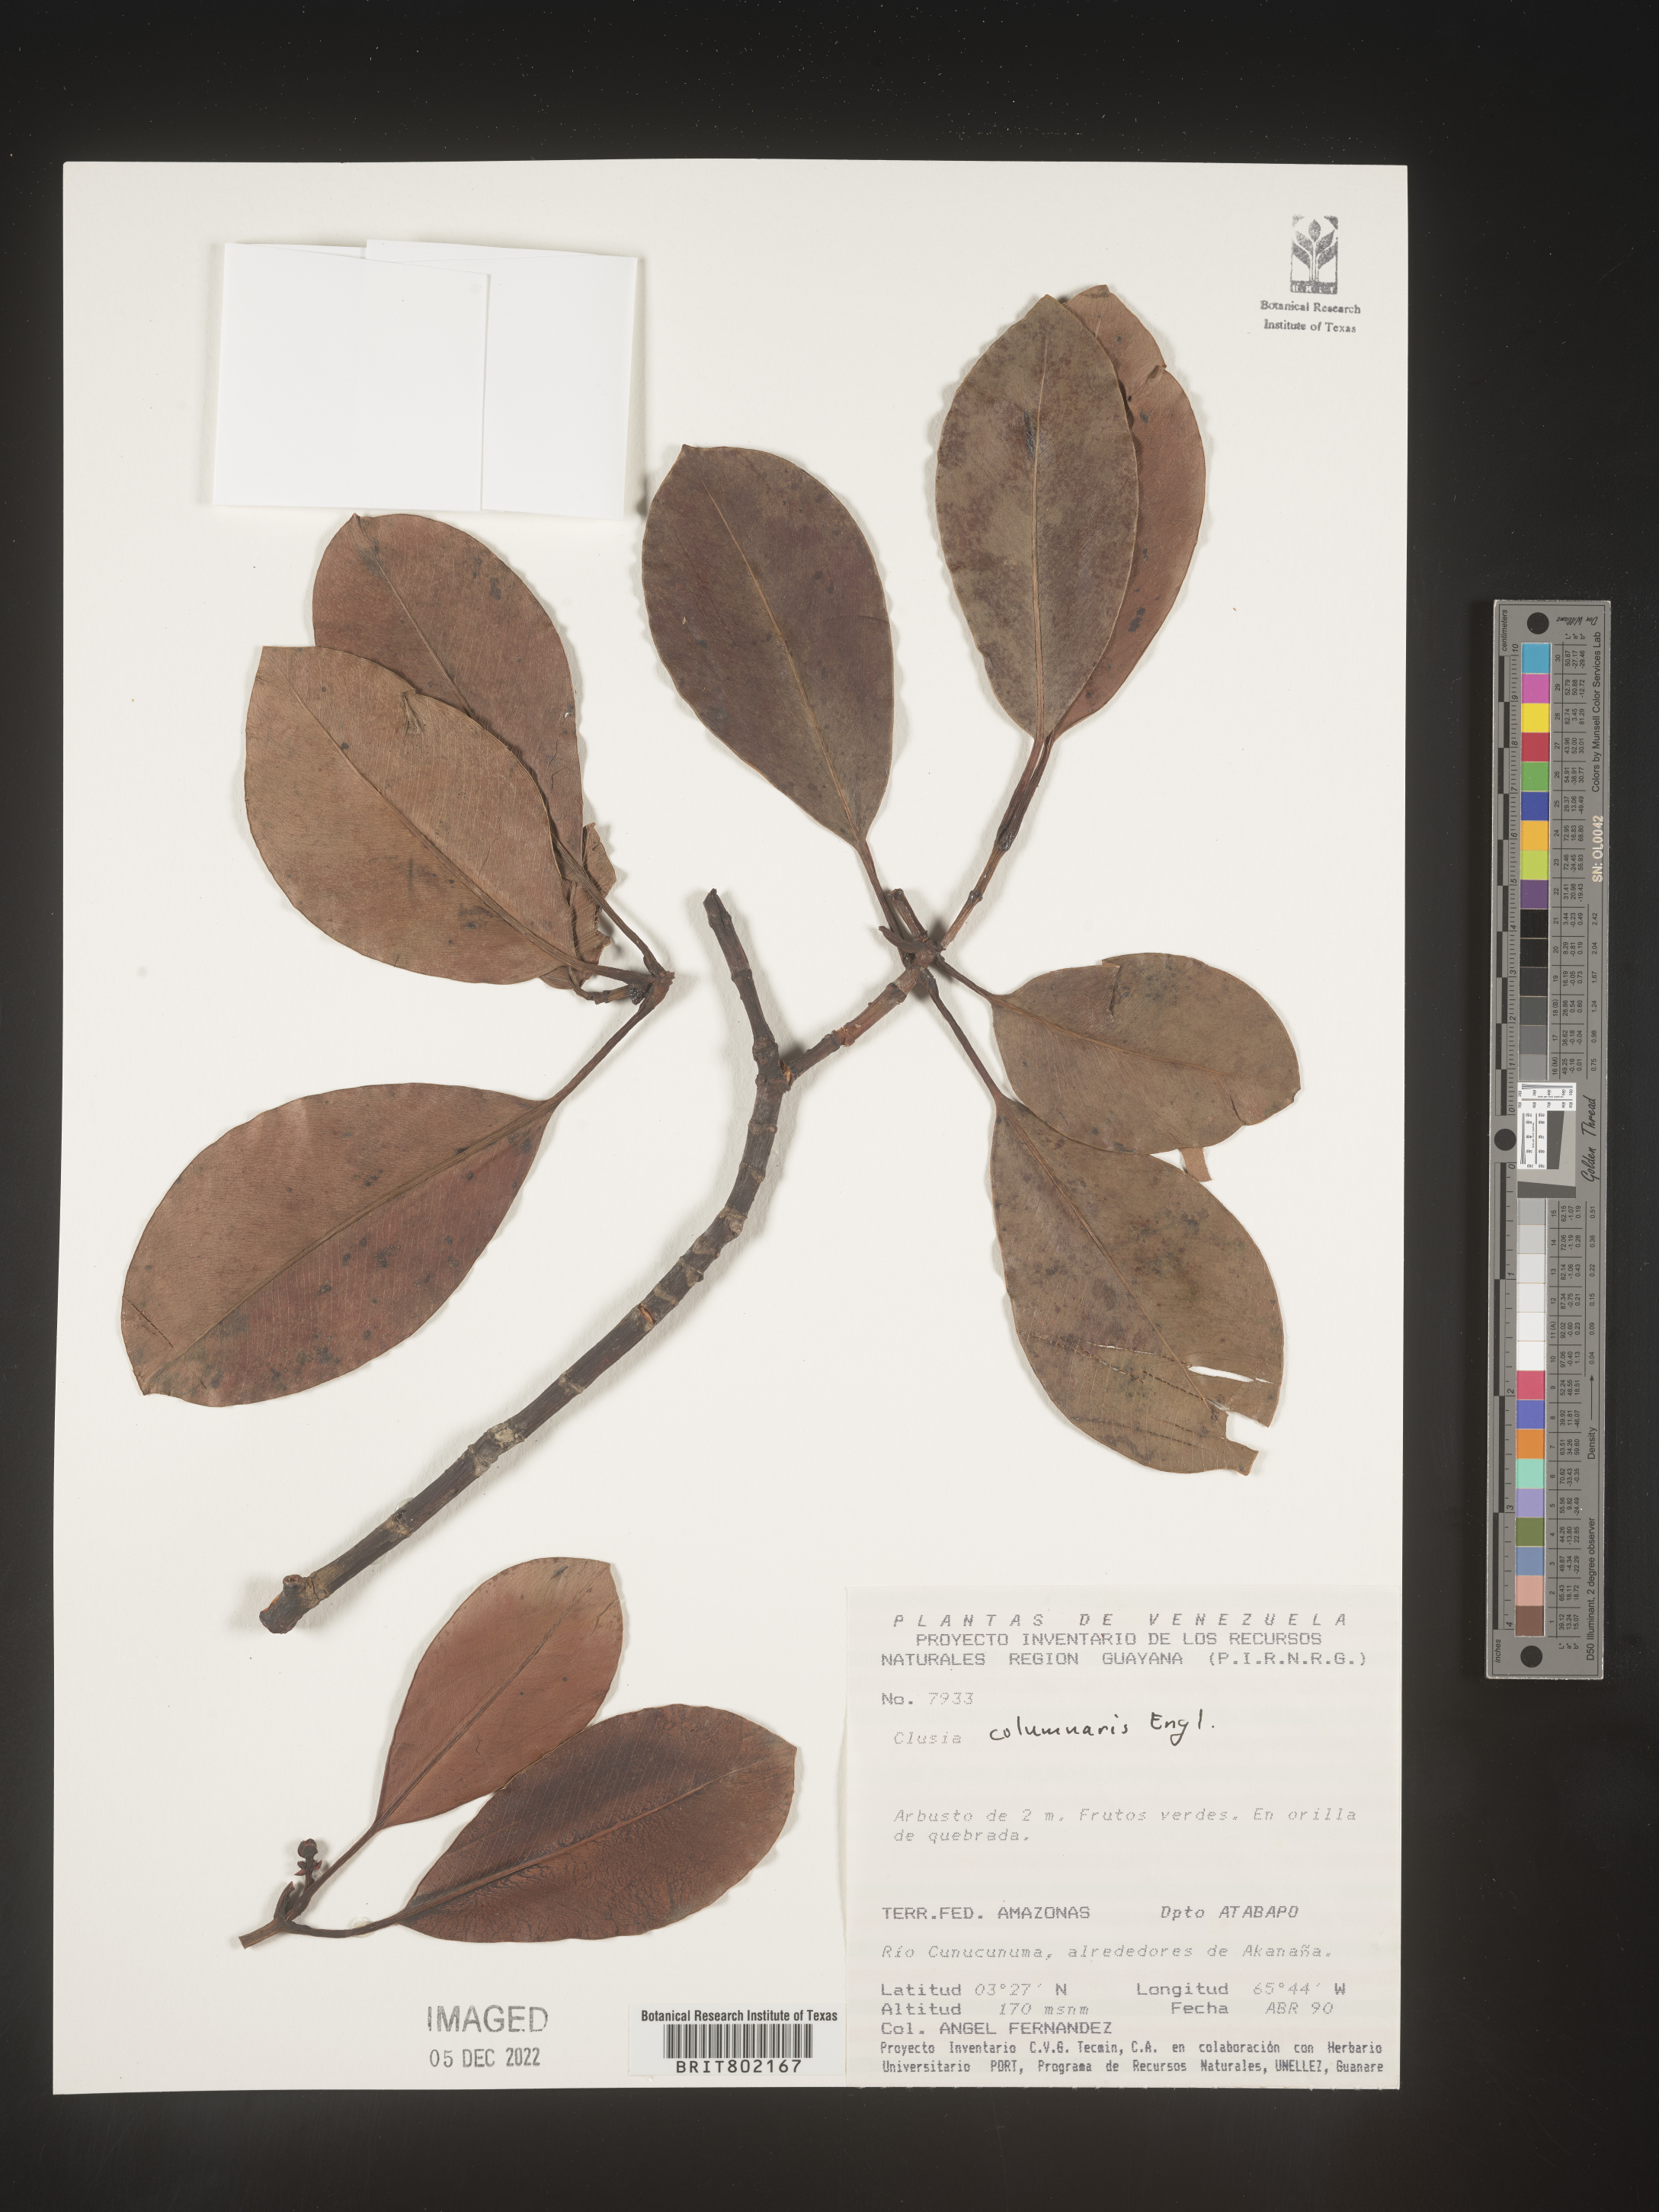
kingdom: Plantae
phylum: Tracheophyta
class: Magnoliopsida
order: Malpighiales
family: Clusiaceae
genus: Clusia
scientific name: Clusia columnaris
